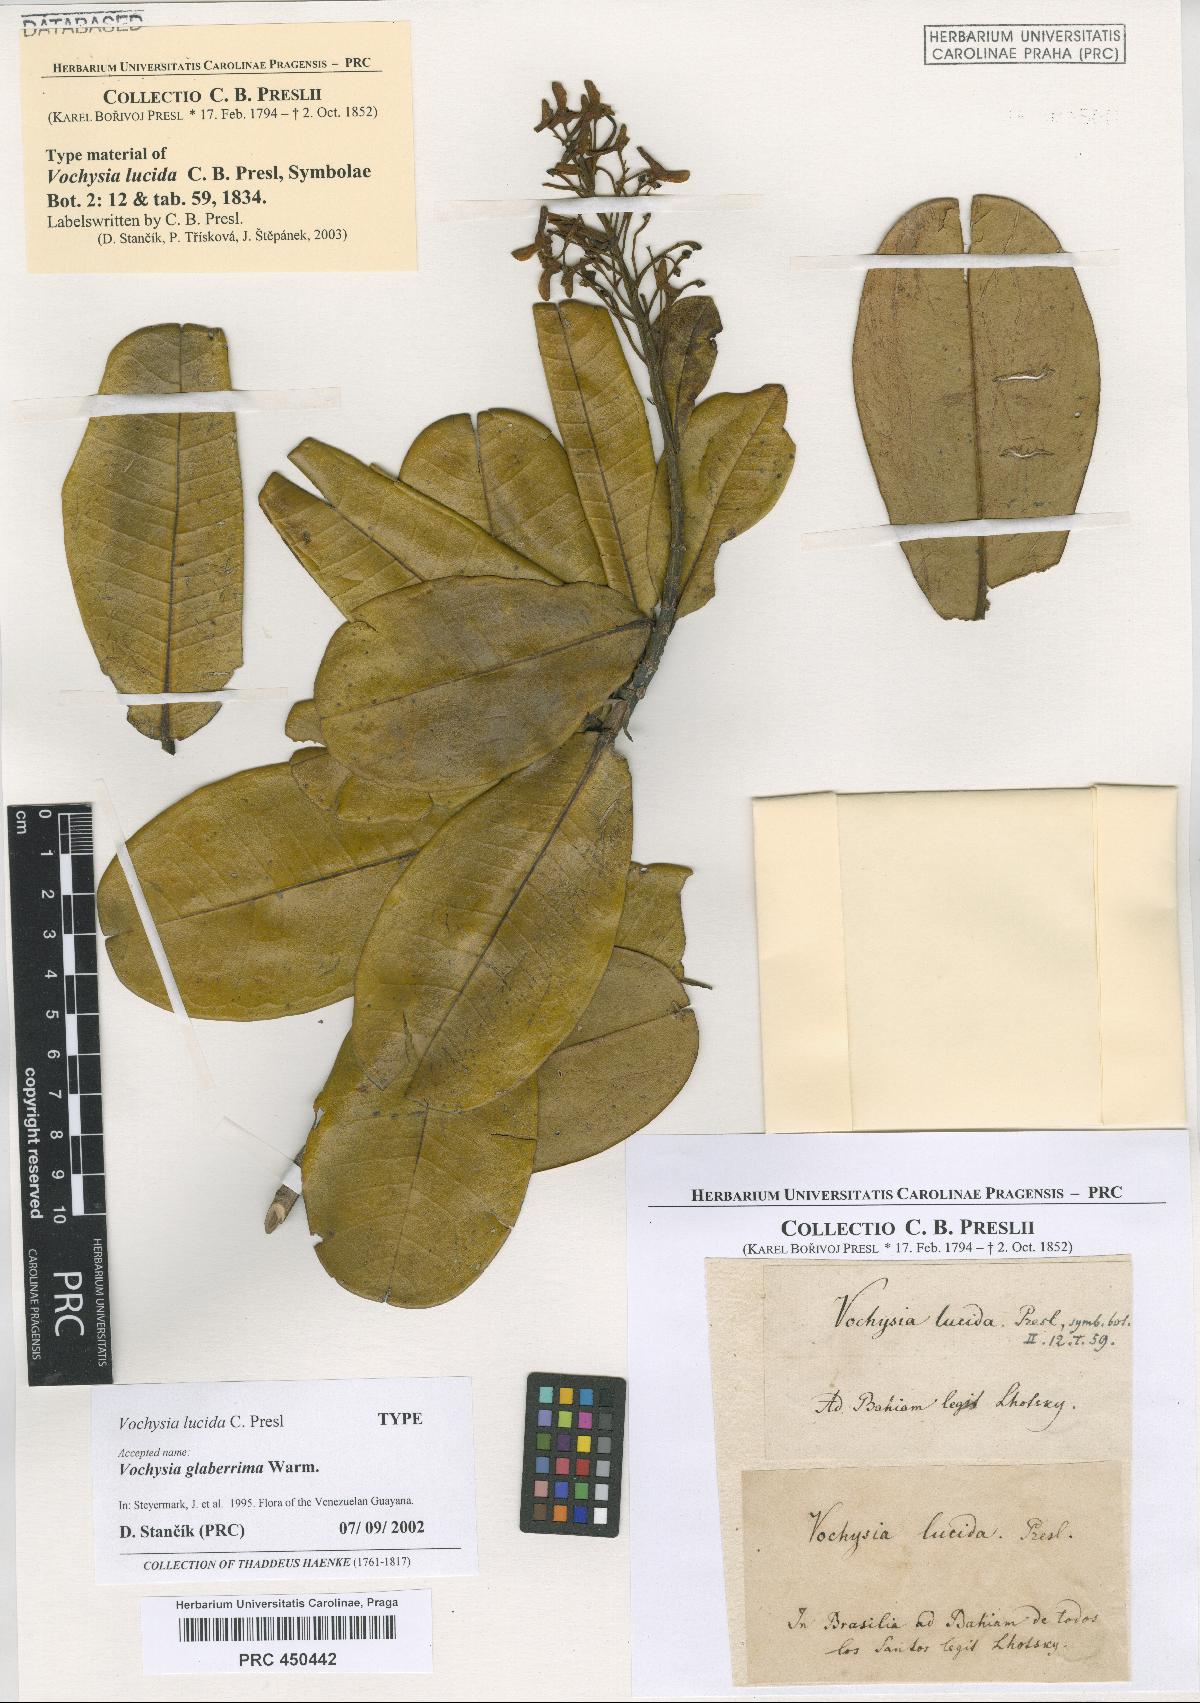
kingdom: Plantae
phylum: Tracheophyta
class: Magnoliopsida
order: Myrtales
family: Vochysiaceae
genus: Vochysia
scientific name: Vochysia lucida
